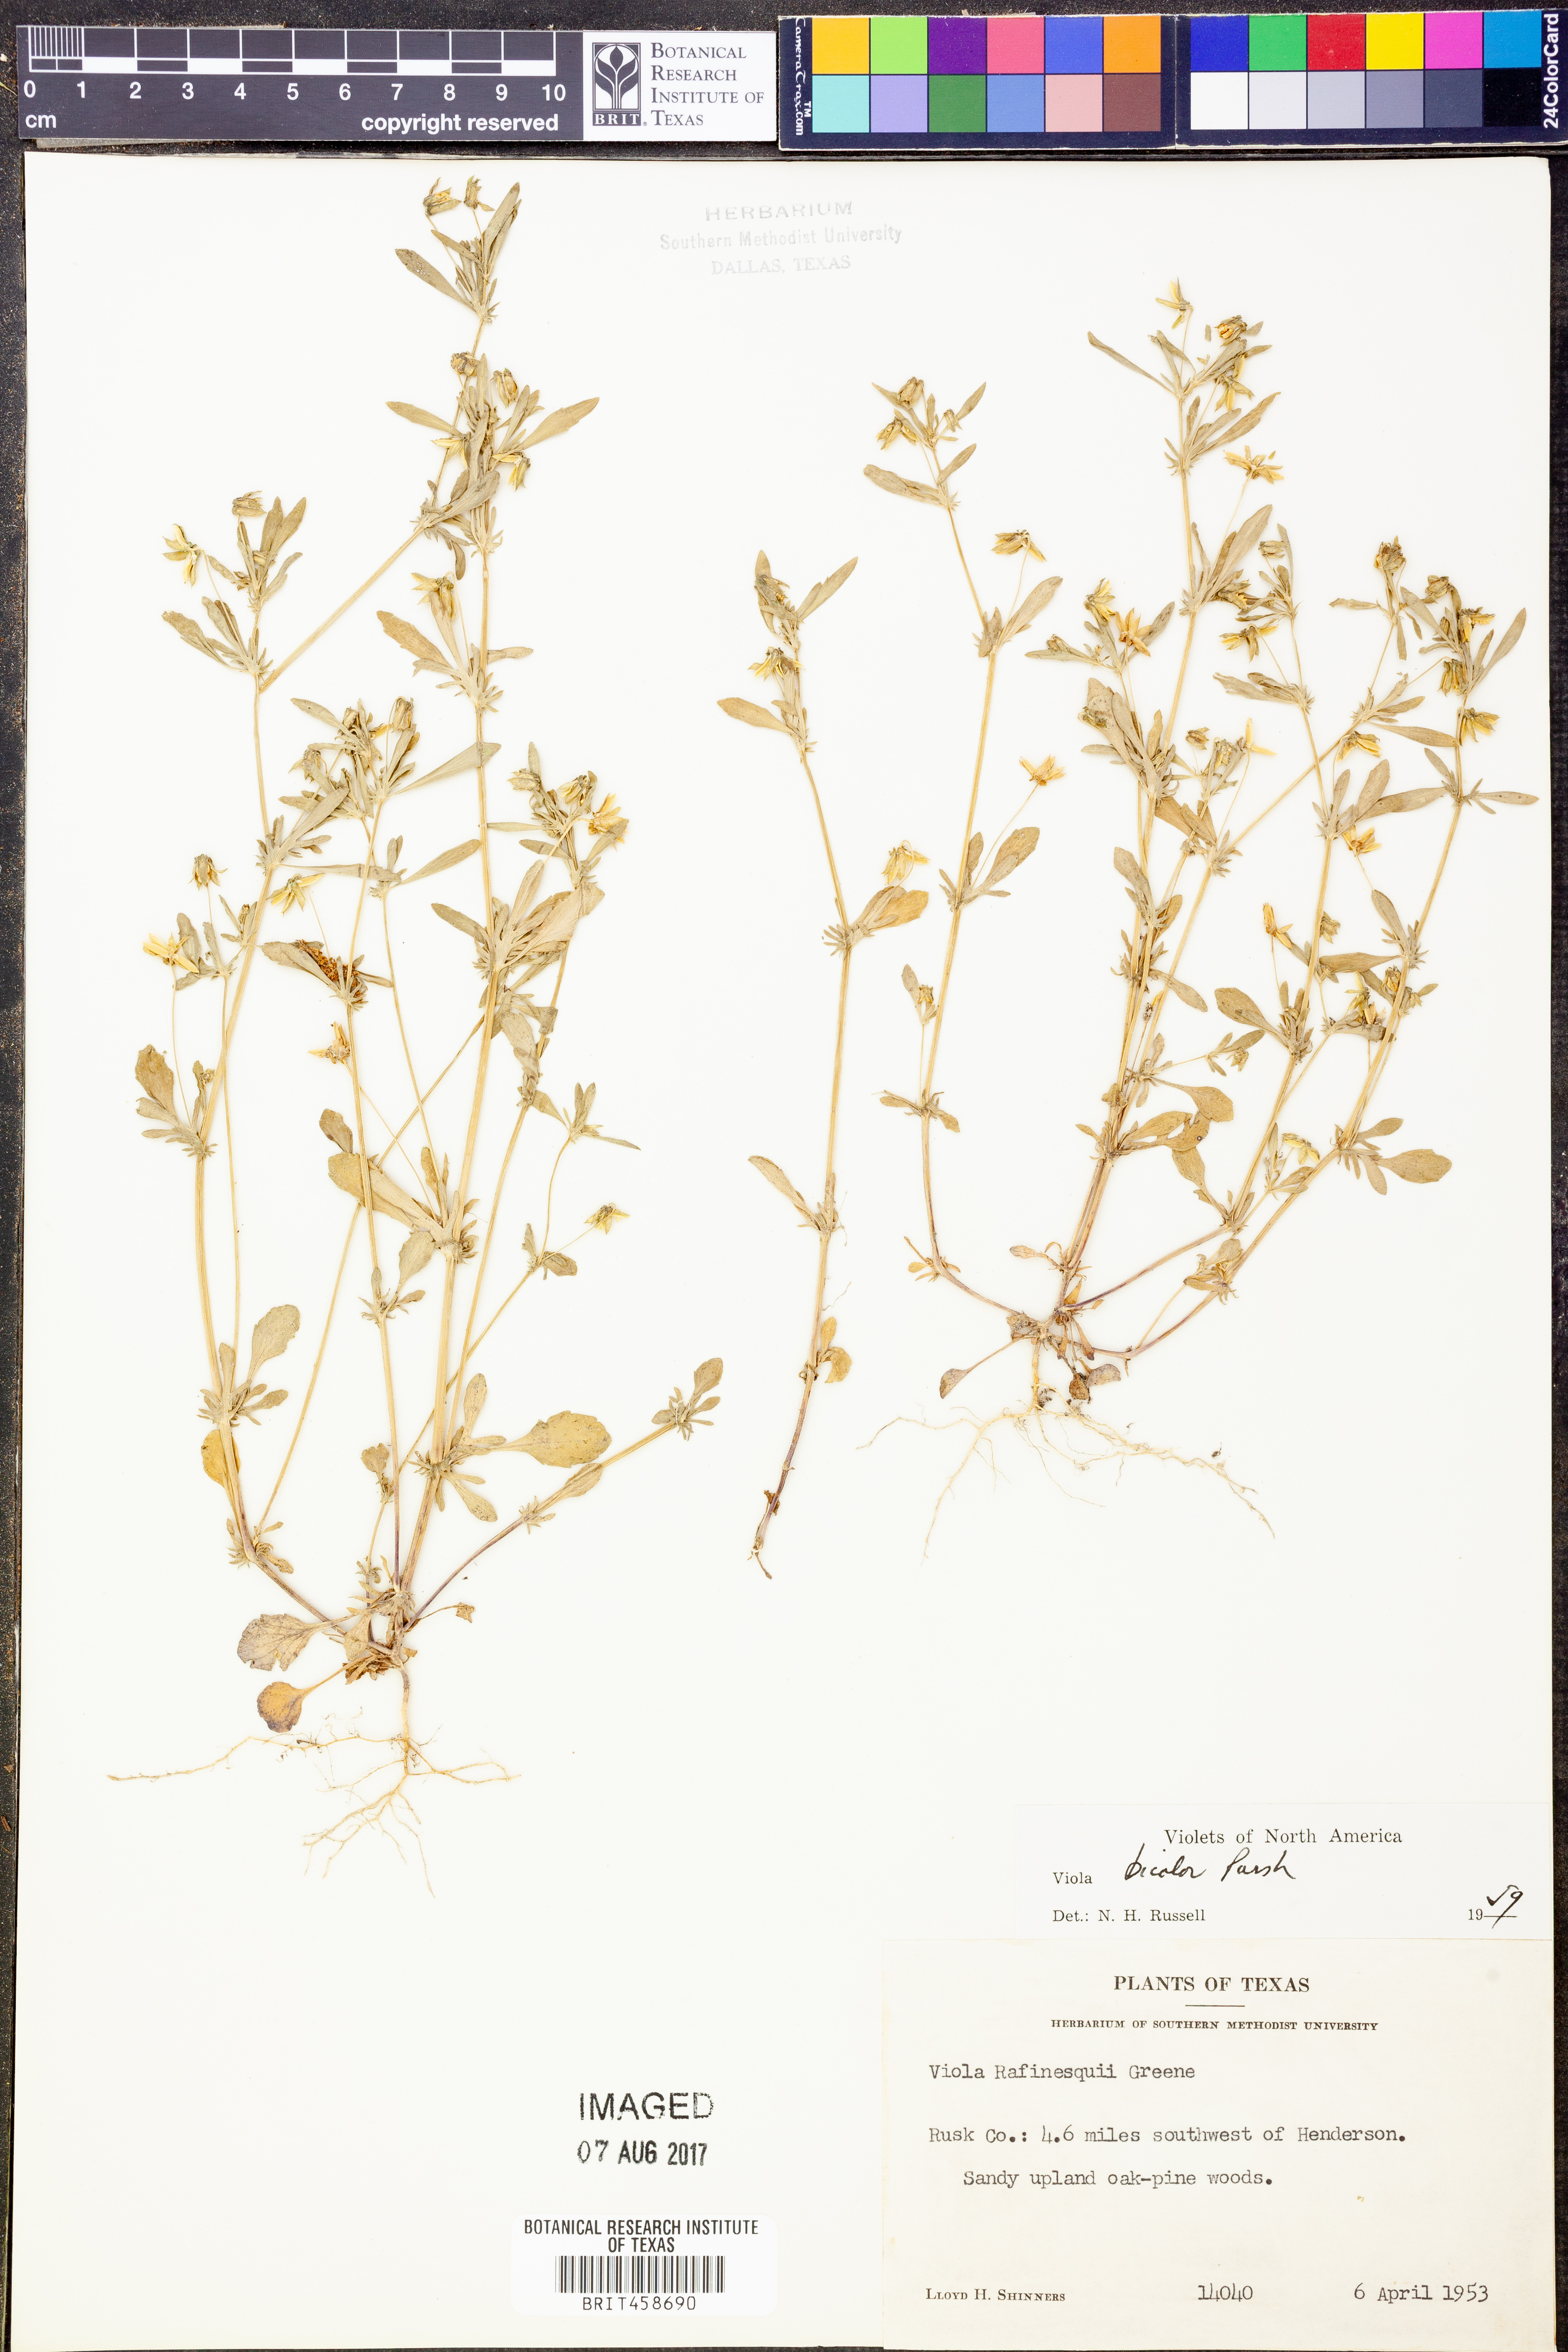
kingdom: Plantae
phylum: Tracheophyta
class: Magnoliopsida
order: Malpighiales
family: Violaceae
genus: Viola
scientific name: Viola rafinesquei
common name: American field pansy
